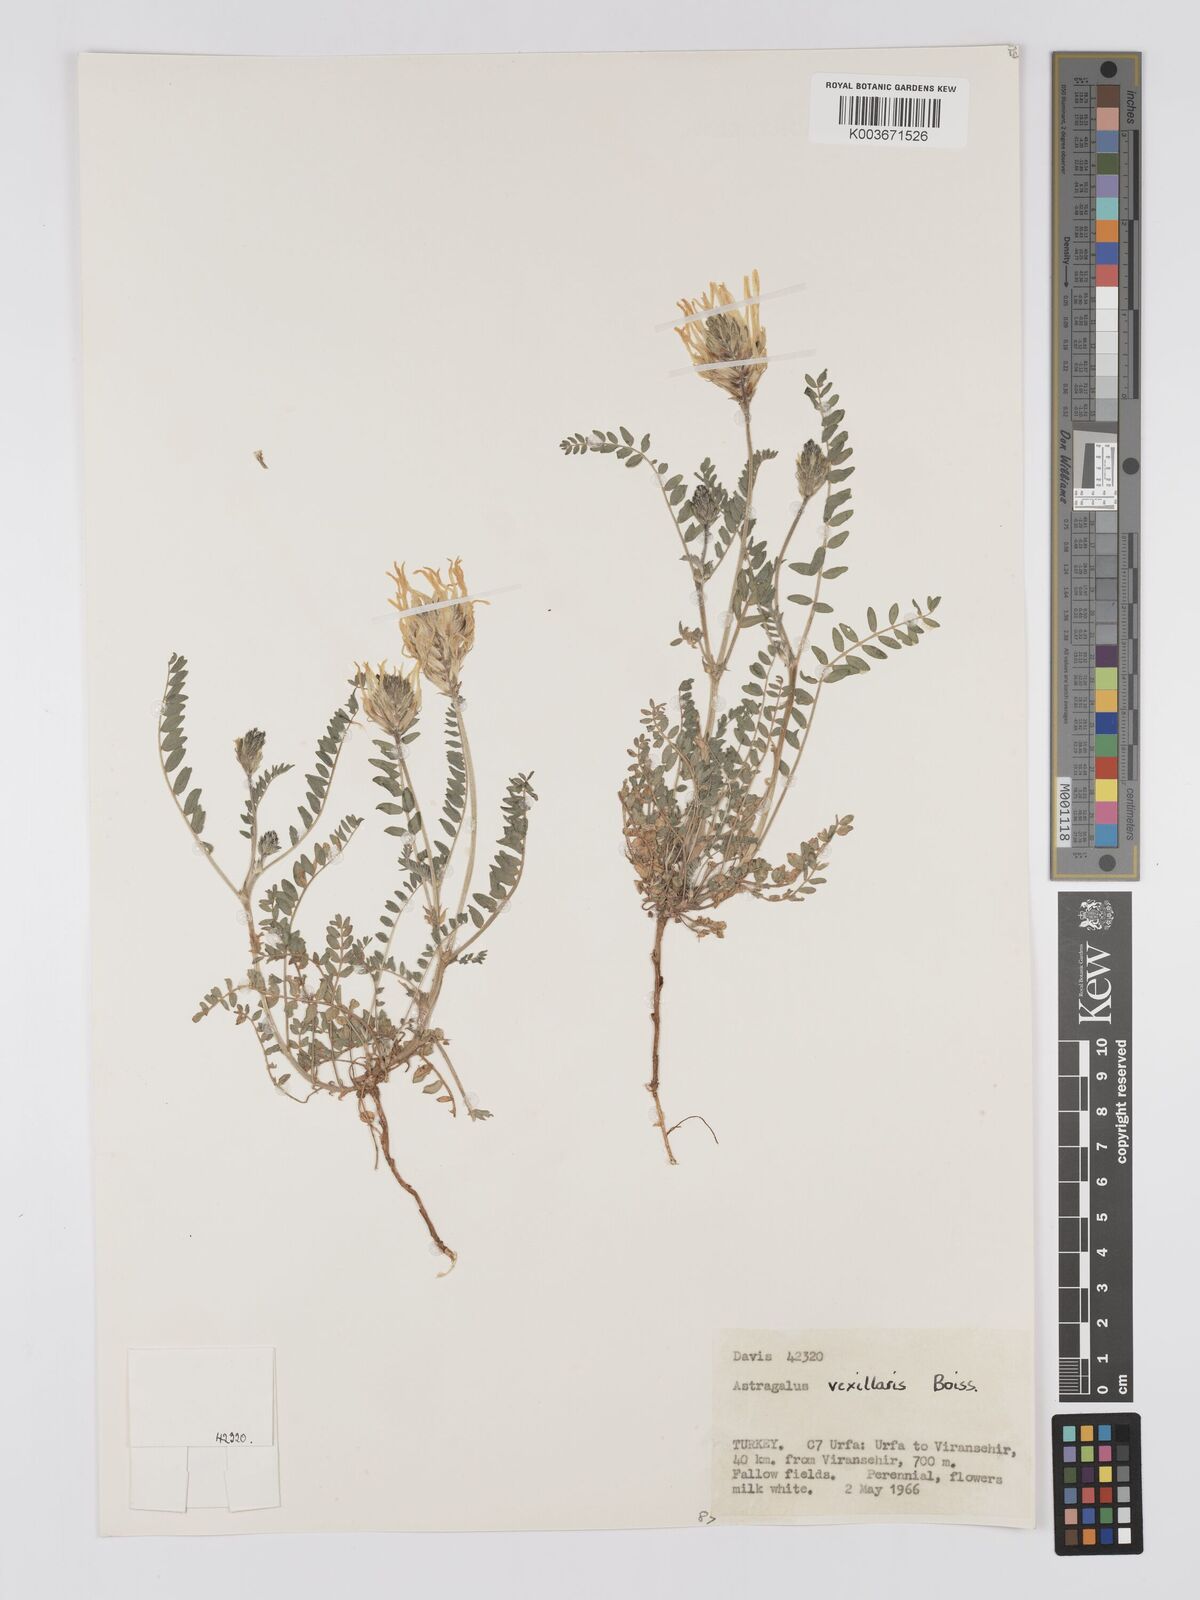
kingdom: Plantae
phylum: Tracheophyta
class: Magnoliopsida
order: Fabales
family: Fabaceae
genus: Astragalus
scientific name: Astragalus vexillaris
